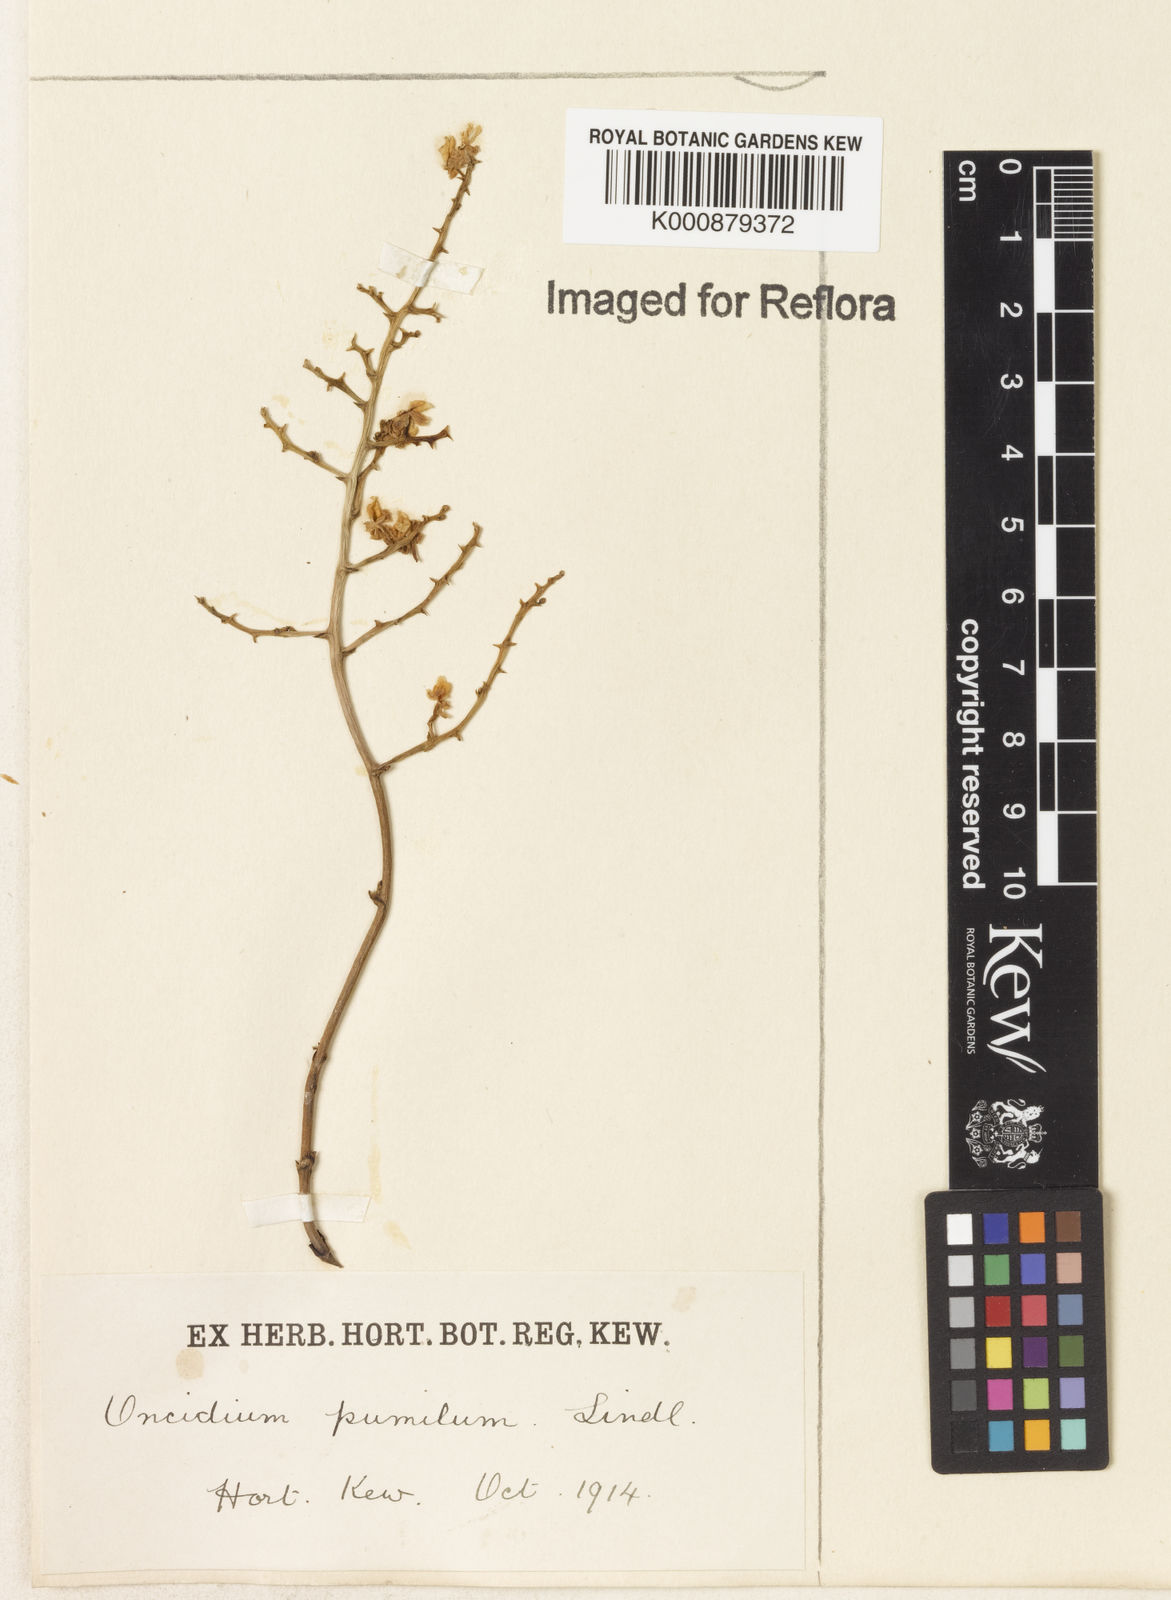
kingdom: Plantae
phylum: Tracheophyta
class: Liliopsida
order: Asparagales
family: Orchidaceae
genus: Trichocentrum
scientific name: Trichocentrum pumilum
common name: Mule-ear orchid
